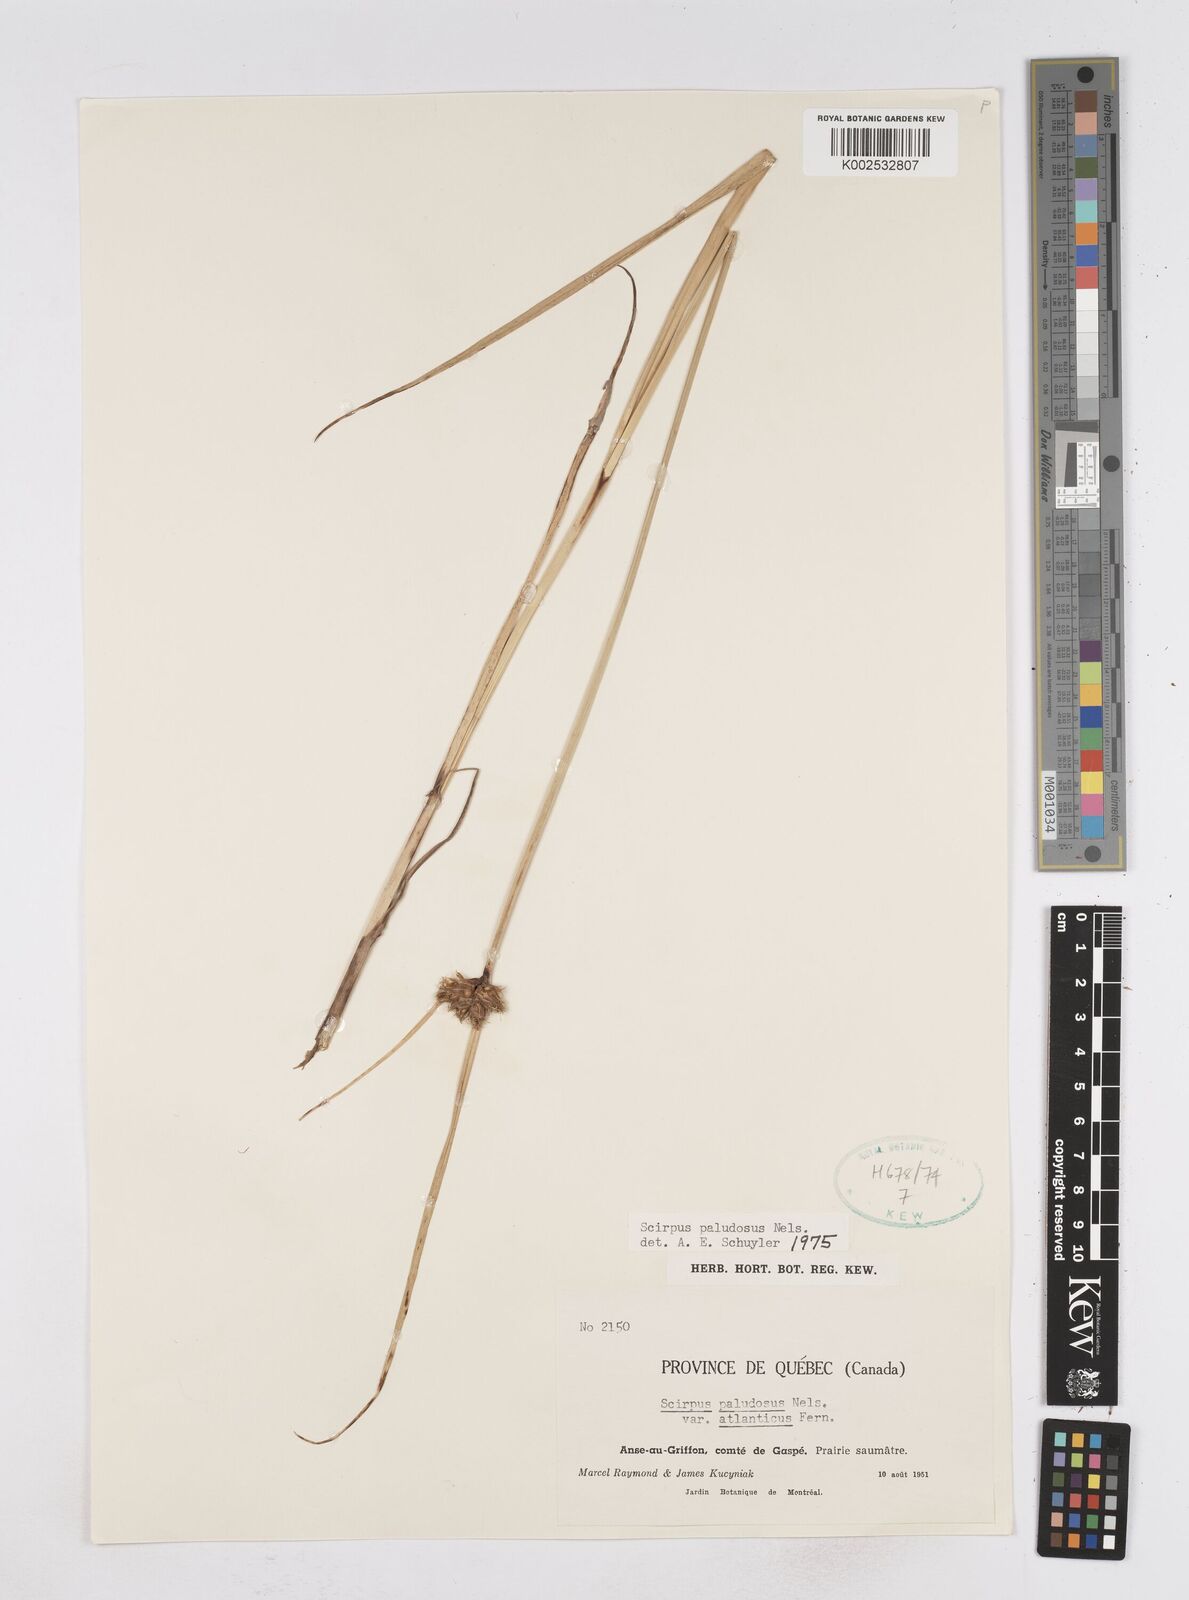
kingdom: Plantae
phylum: Tracheophyta
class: Liliopsida
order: Poales
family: Cyperaceae
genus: Bolboschoenus
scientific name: Bolboschoenus maritimus
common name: Sea club-rush
